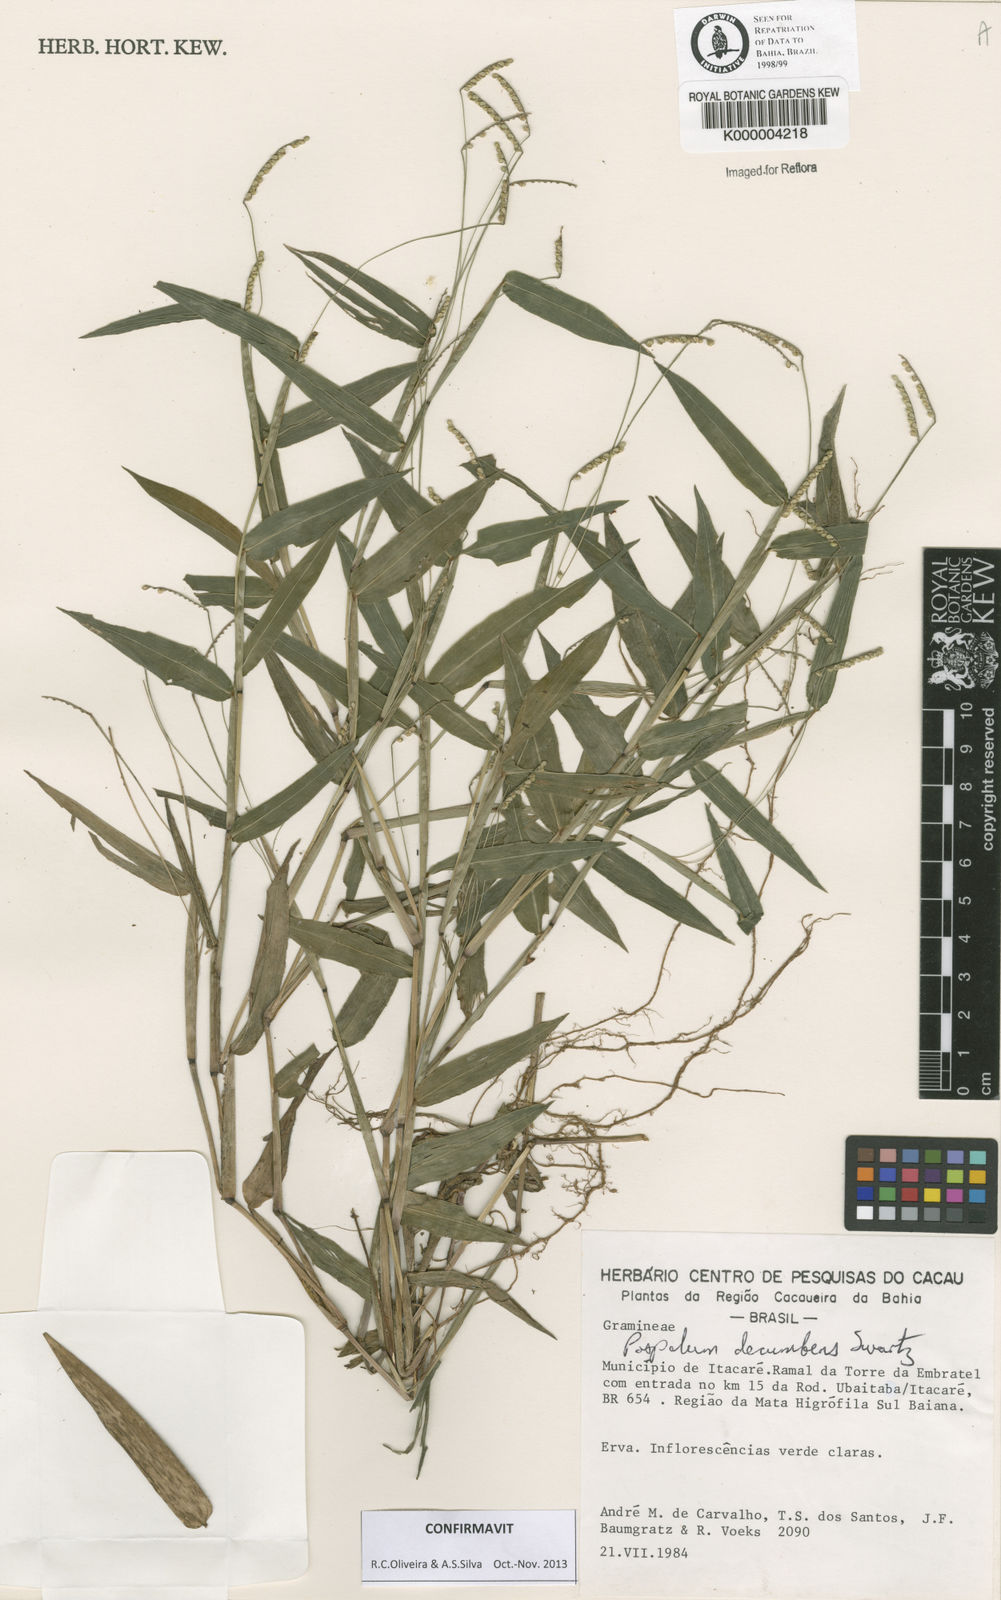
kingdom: Plantae
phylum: Tracheophyta
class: Liliopsida
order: Poales
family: Poaceae
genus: Paspalum
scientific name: Paspalum
